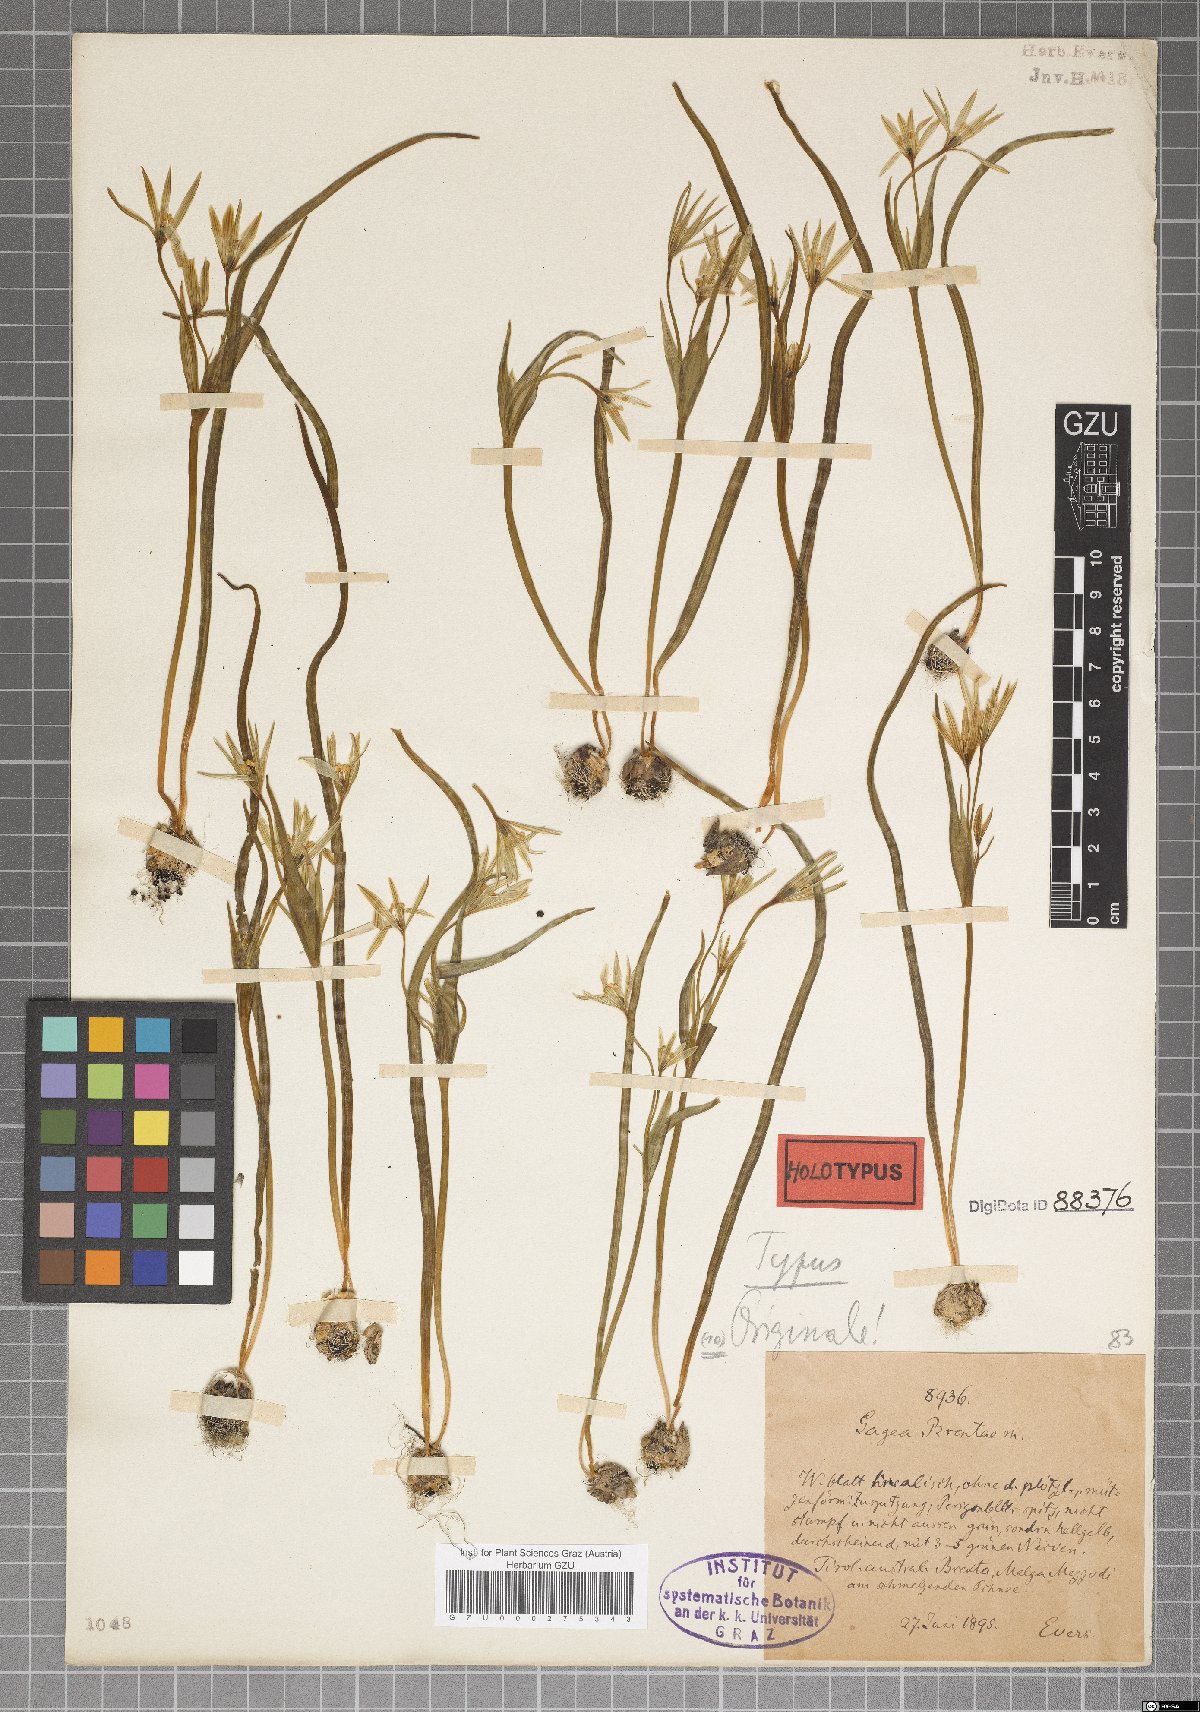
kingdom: Plantae
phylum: Tracheophyta
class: Liliopsida
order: Liliales
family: Liliaceae
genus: Gagea
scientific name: Gagea fragifera
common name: Lily
